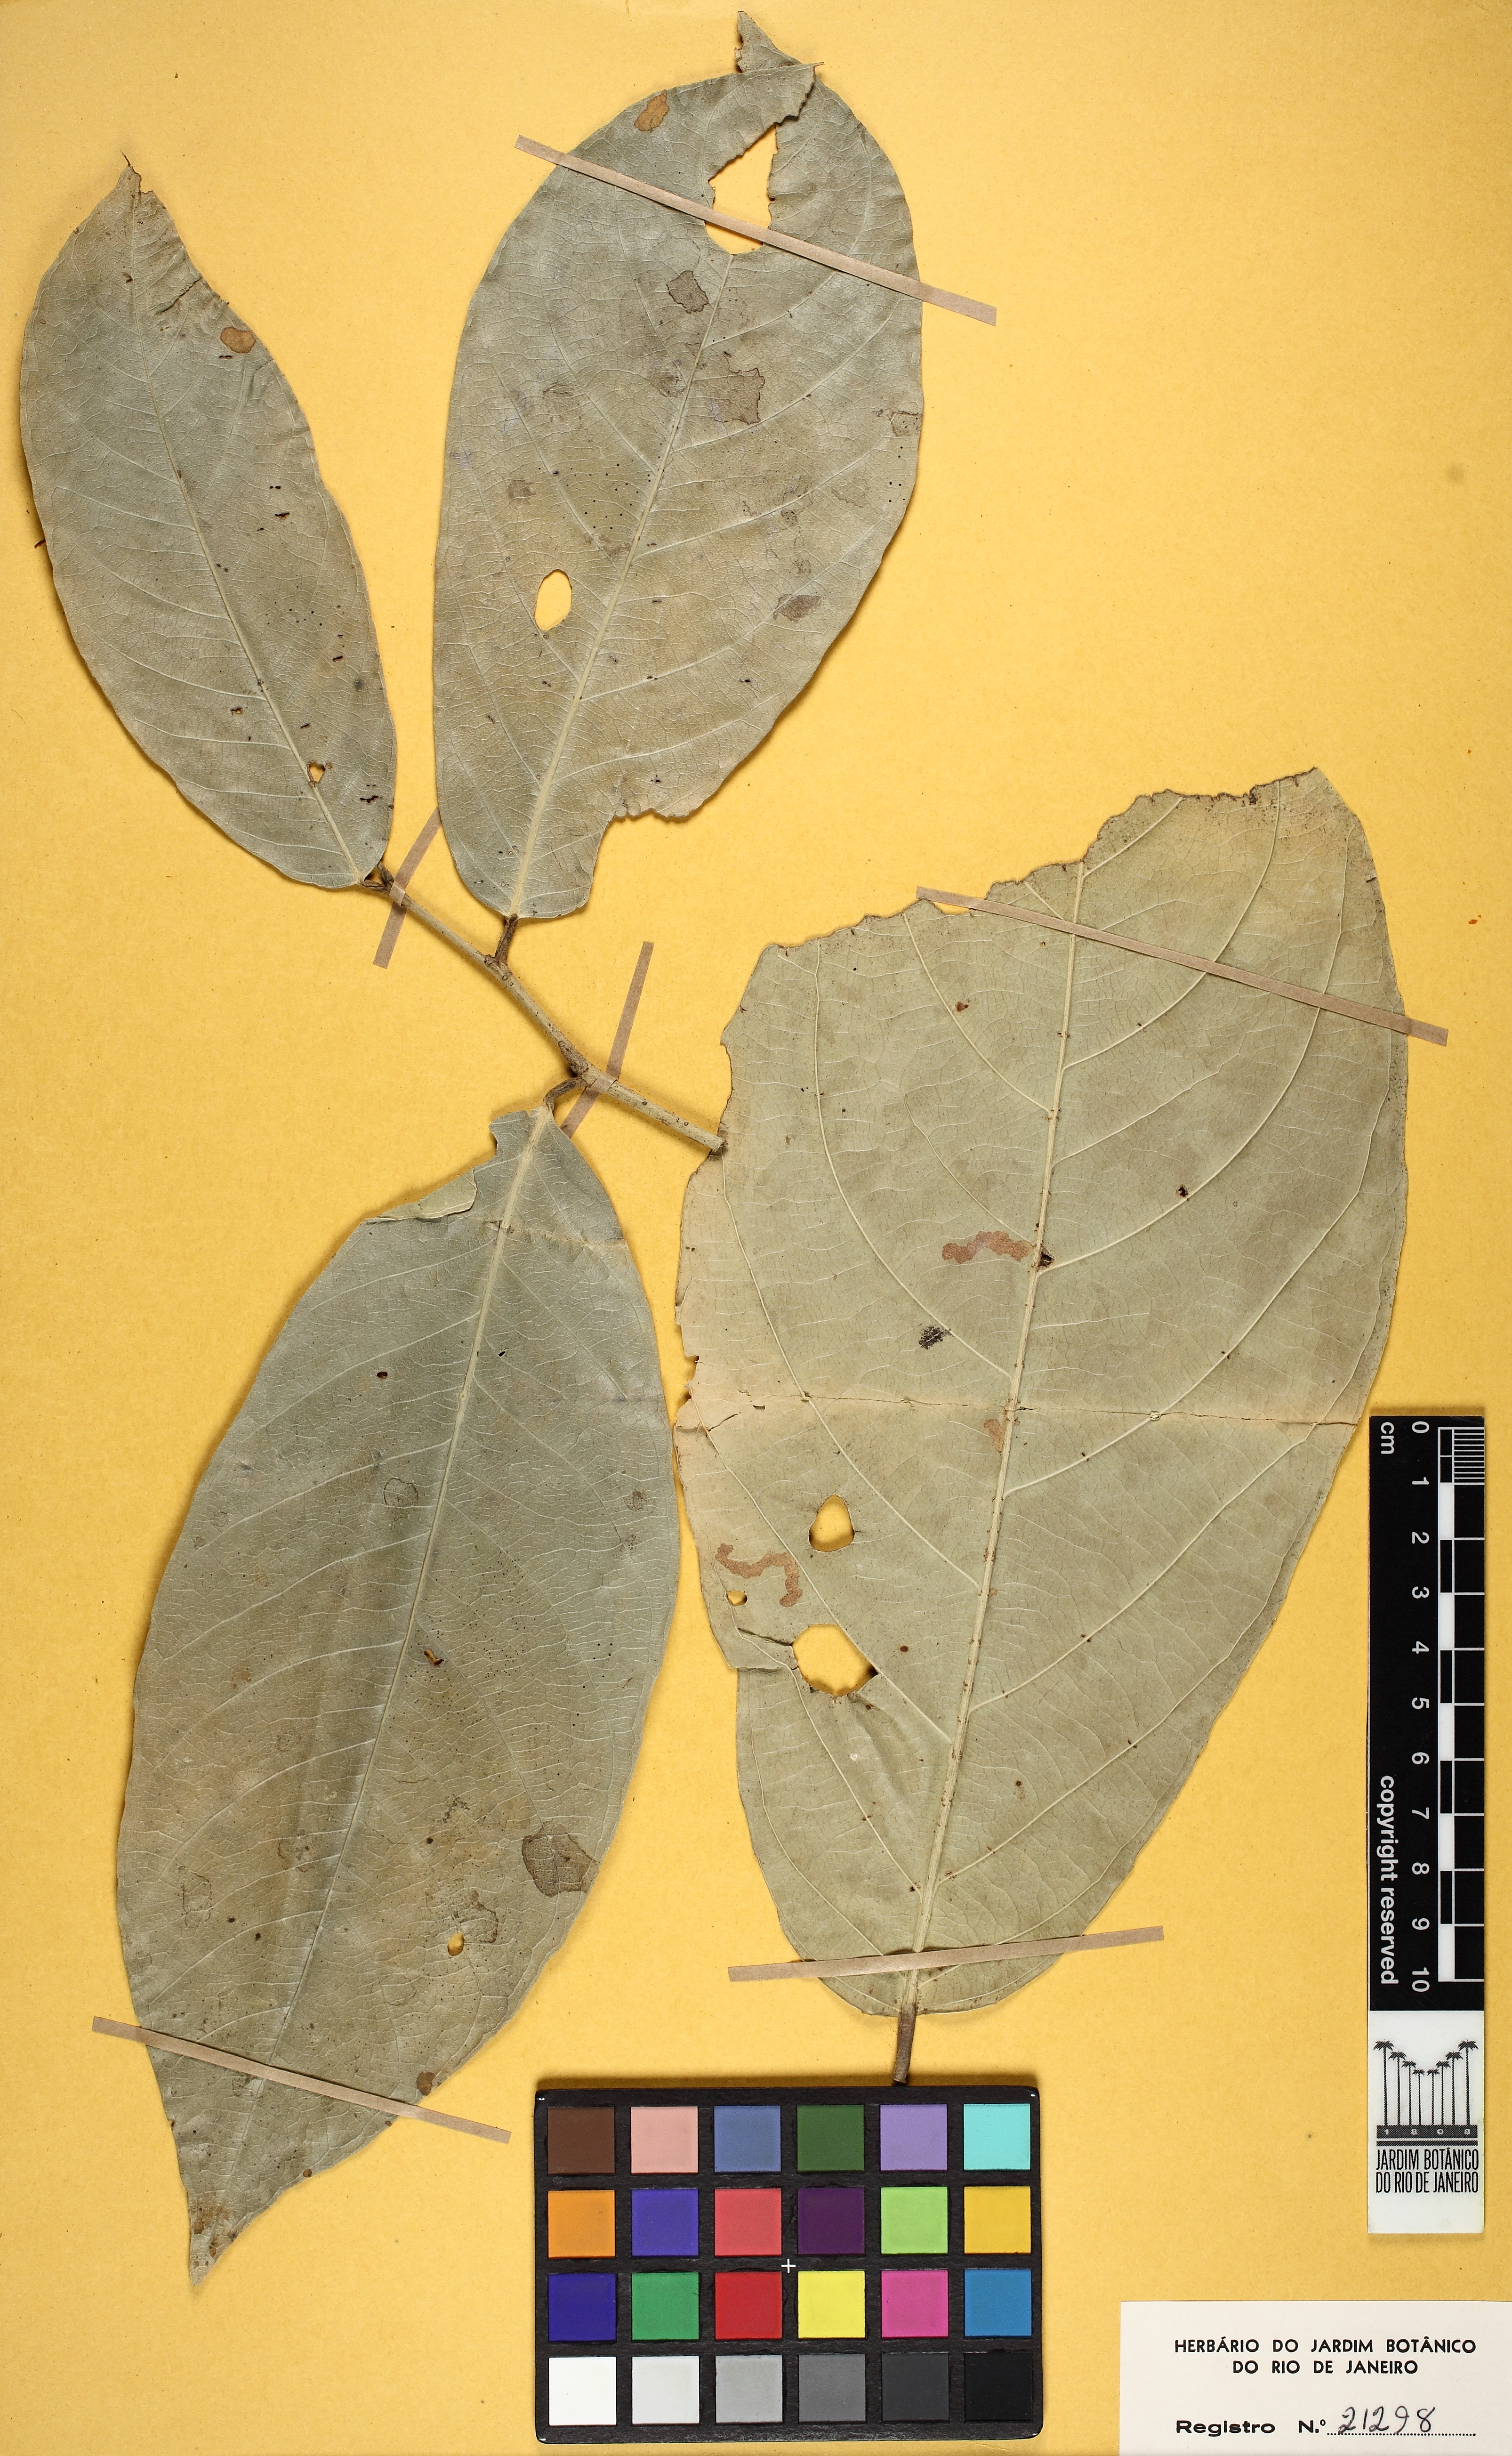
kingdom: Plantae
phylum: Tracheophyta
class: Magnoliopsida
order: Malpighiales
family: Violaceae
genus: Leonia
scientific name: Leonia glycycarpa
